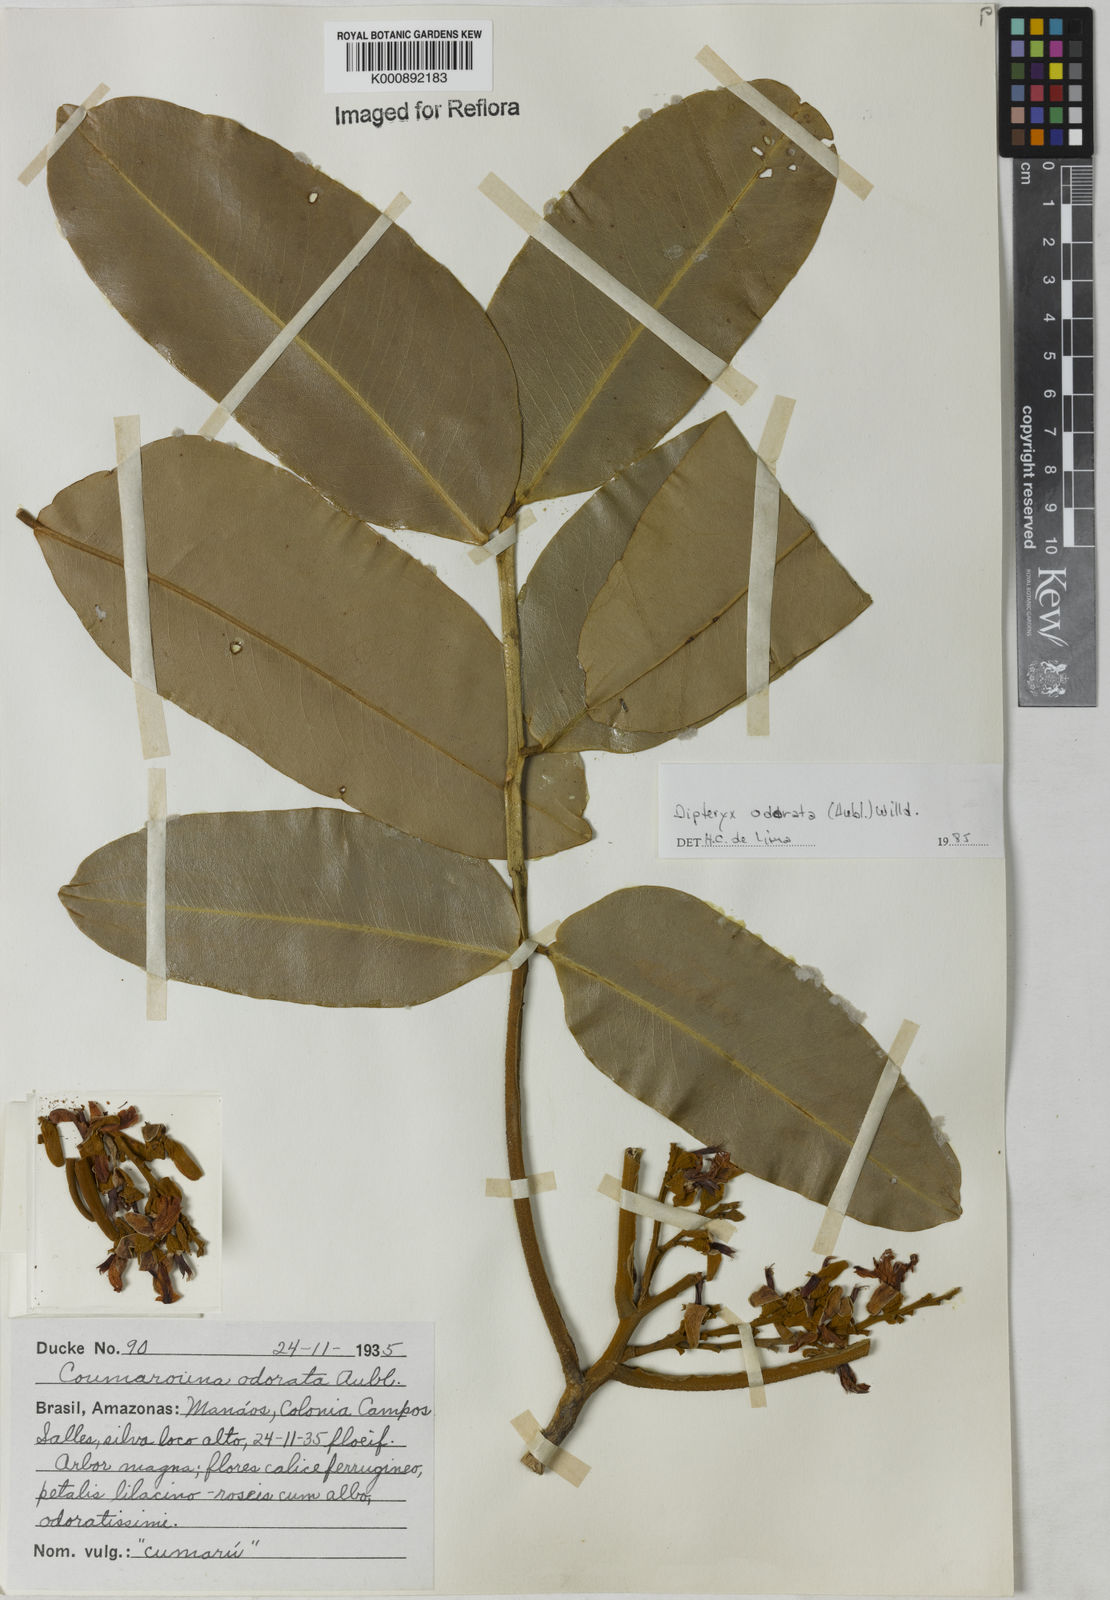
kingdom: Plantae
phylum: Tracheophyta
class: Magnoliopsida
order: Fabales
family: Fabaceae
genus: Dipteryx
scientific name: Dipteryx
